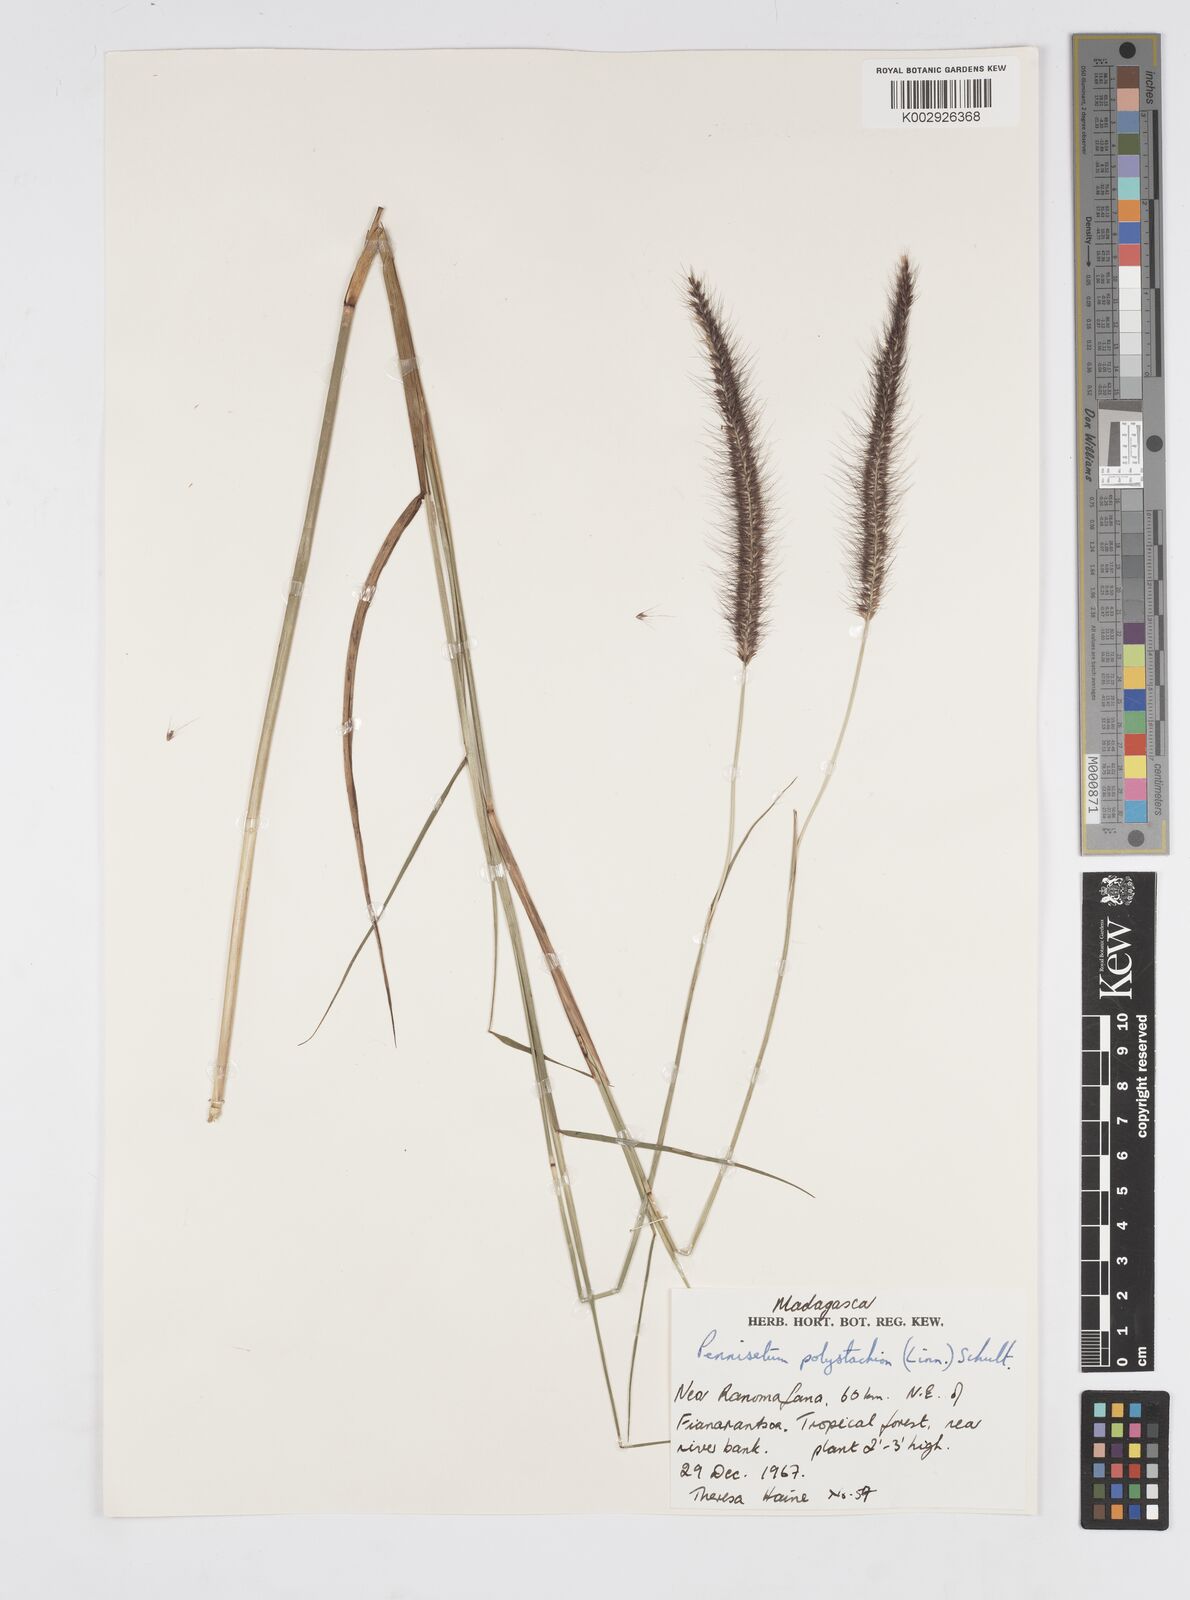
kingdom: Plantae
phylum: Tracheophyta
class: Liliopsida
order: Poales
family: Poaceae
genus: Setaria
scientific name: Setaria parviflora
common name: Knotroot bristle-grass
